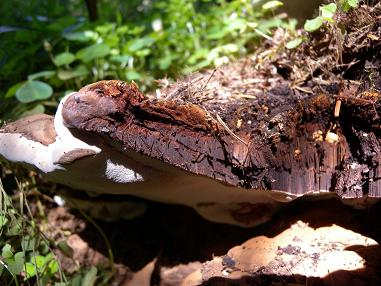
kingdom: Fungi
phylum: Basidiomycota
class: Agaricomycetes
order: Polyporales
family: Polyporaceae
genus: Ganoderma
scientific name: Ganoderma applanatum
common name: flad lakporesvamp
